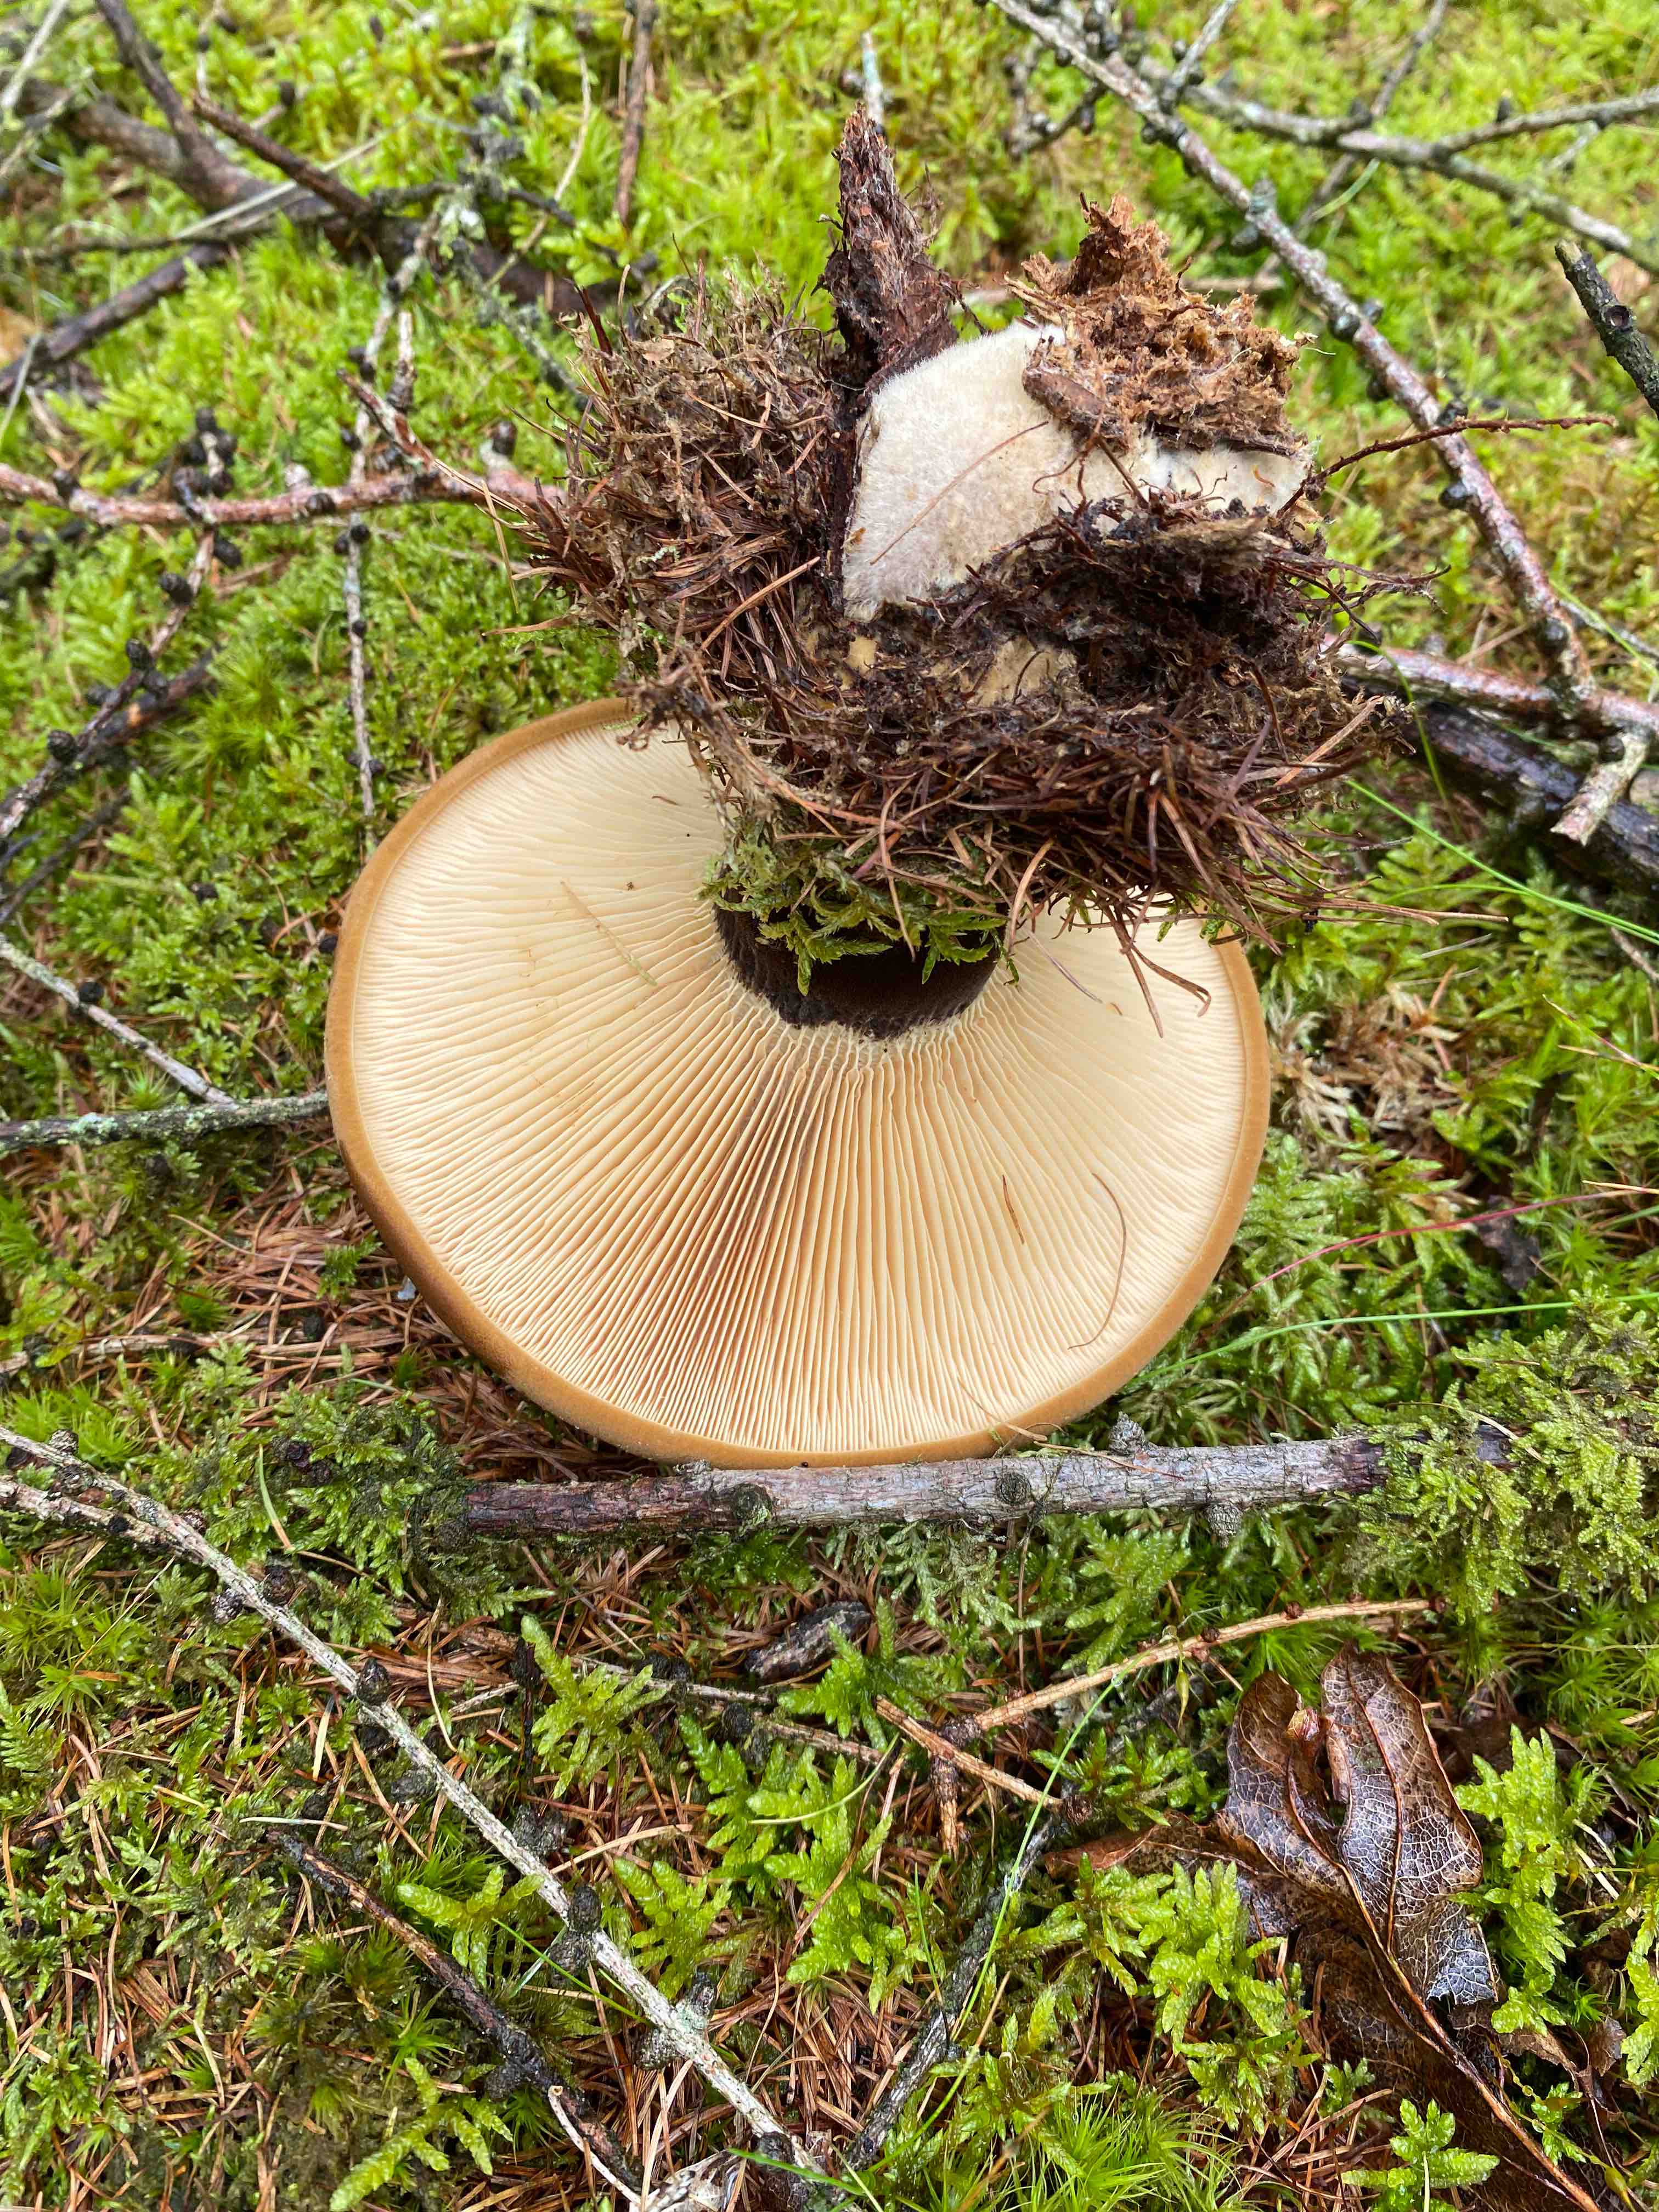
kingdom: Fungi
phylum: Basidiomycota
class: Agaricomycetes
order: Boletales
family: Tapinellaceae
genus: Tapinella
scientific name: Tapinella atrotomentosa
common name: sortfiltet viftesvamp
